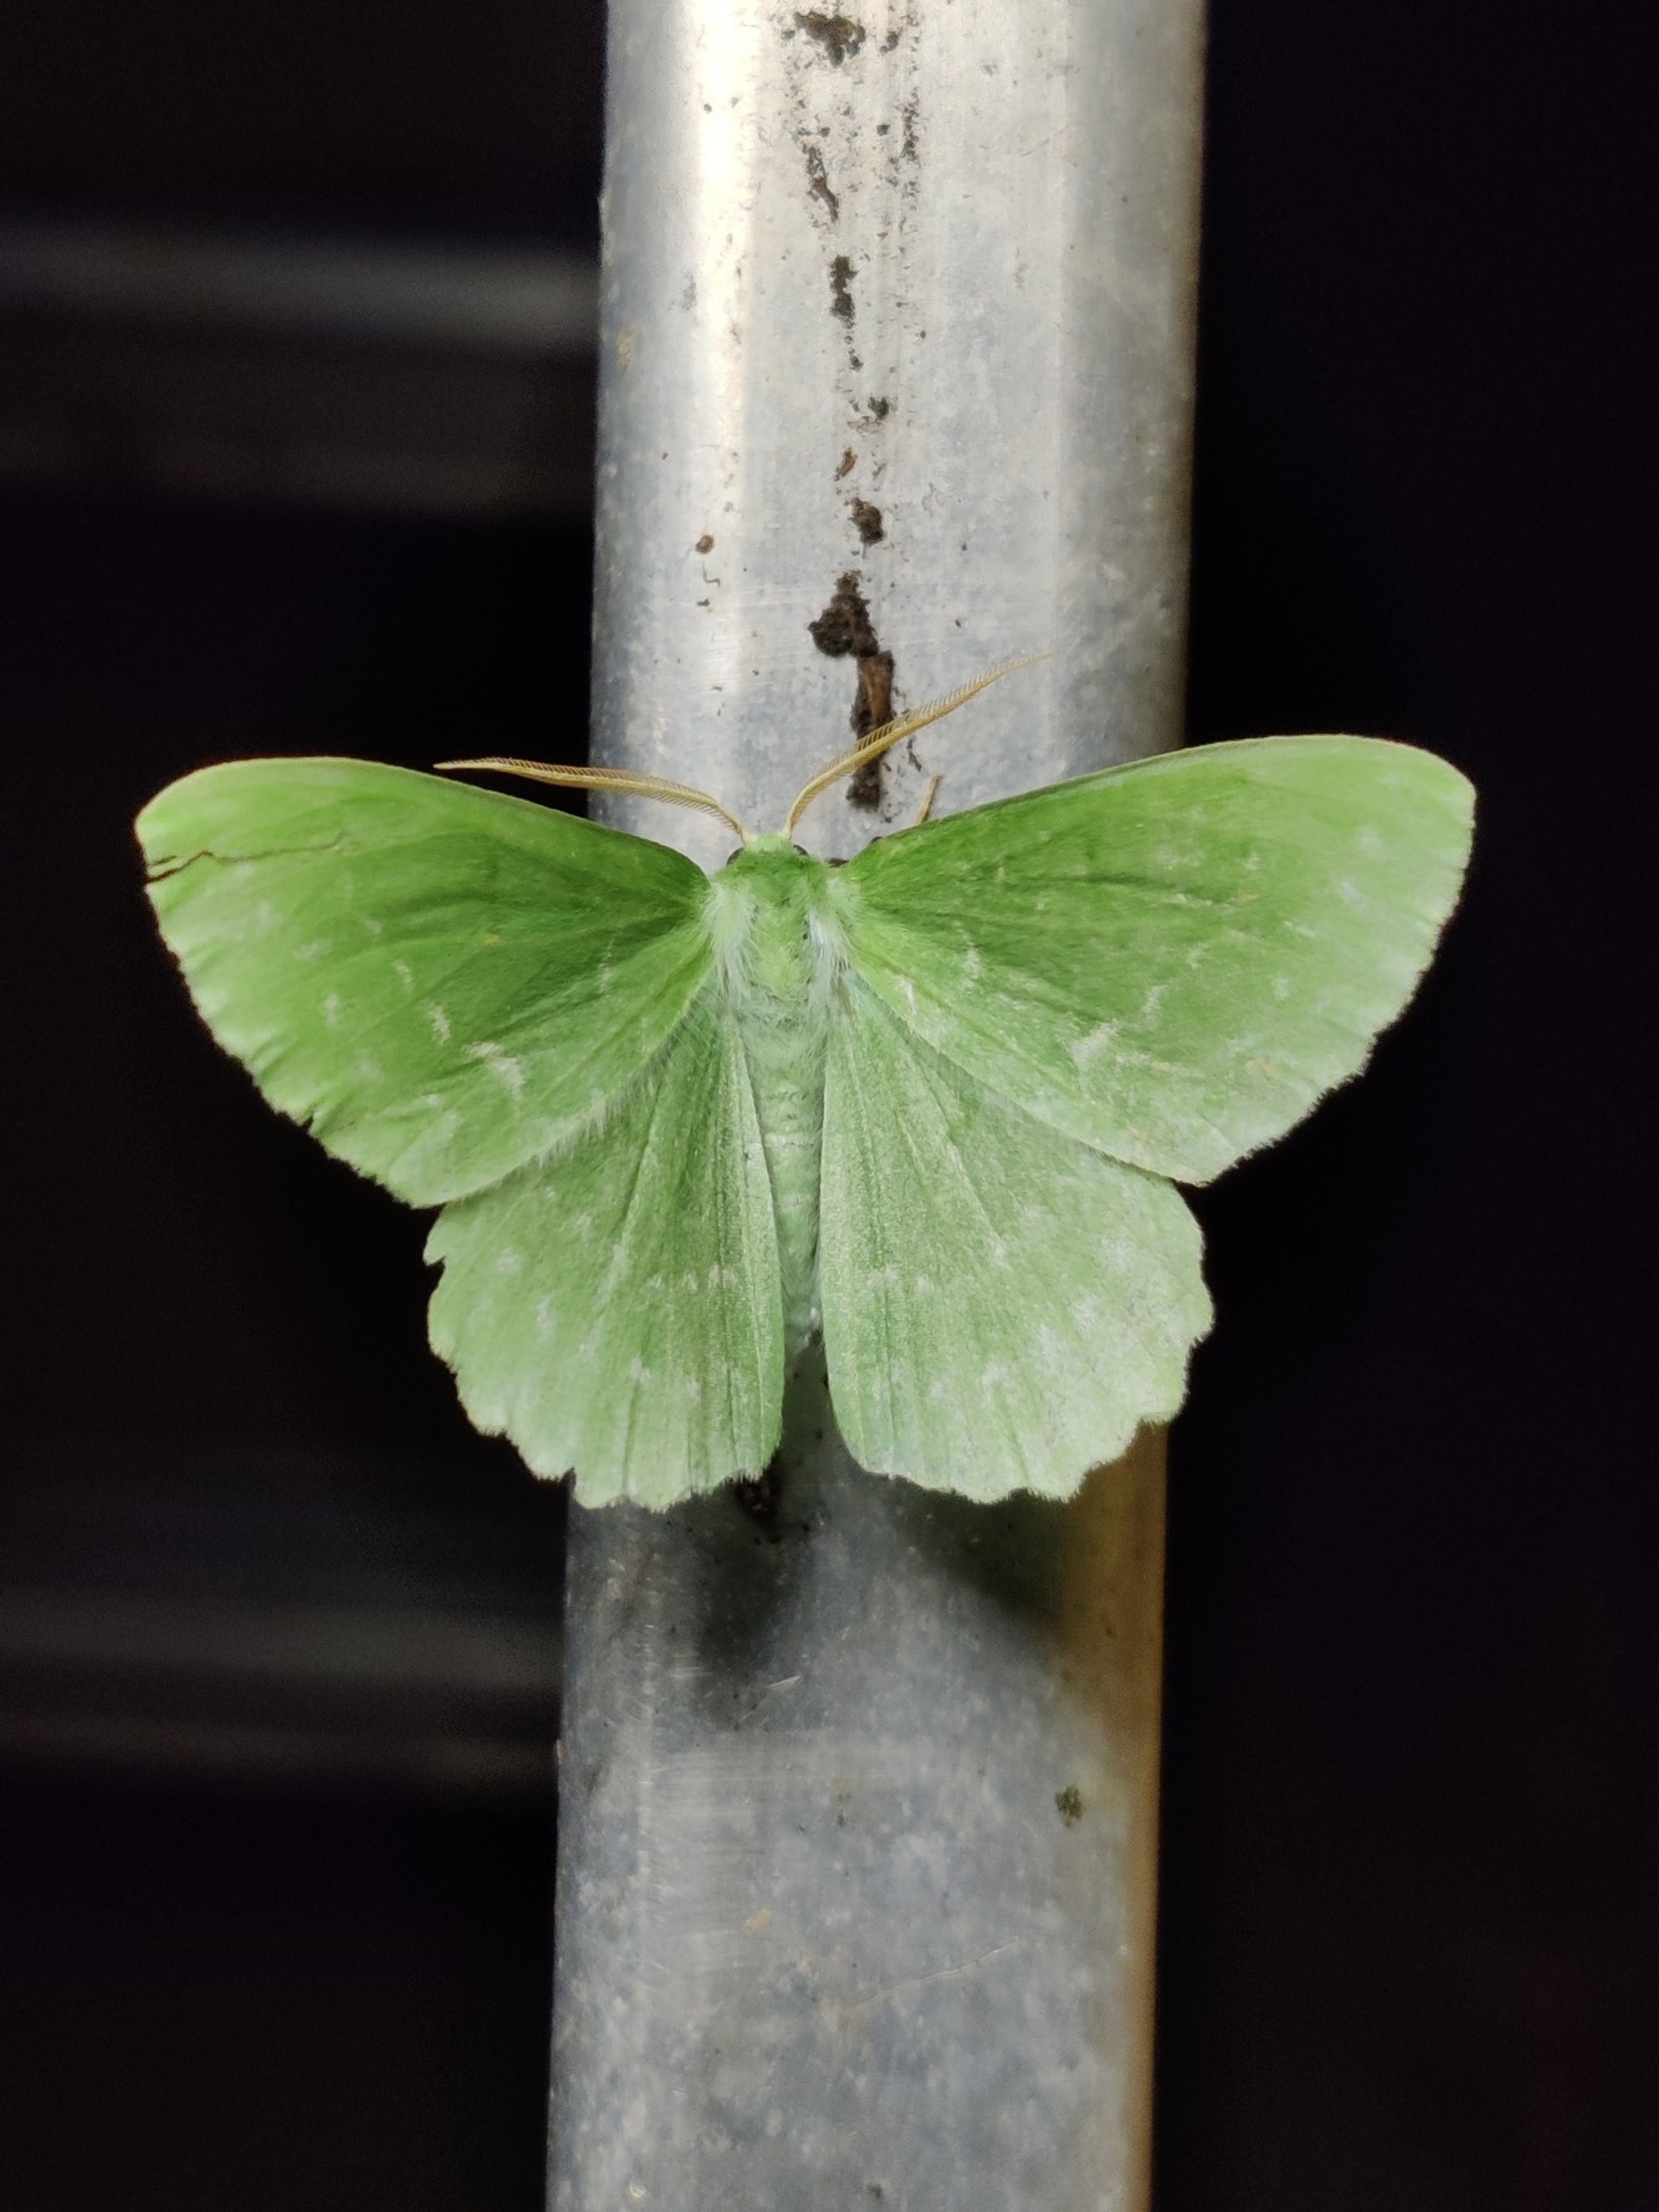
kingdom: Animalia
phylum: Arthropoda
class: Insecta
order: Lepidoptera
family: Geometridae
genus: Geometra
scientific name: Geometra papilionaria
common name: Grøn birkemåler
